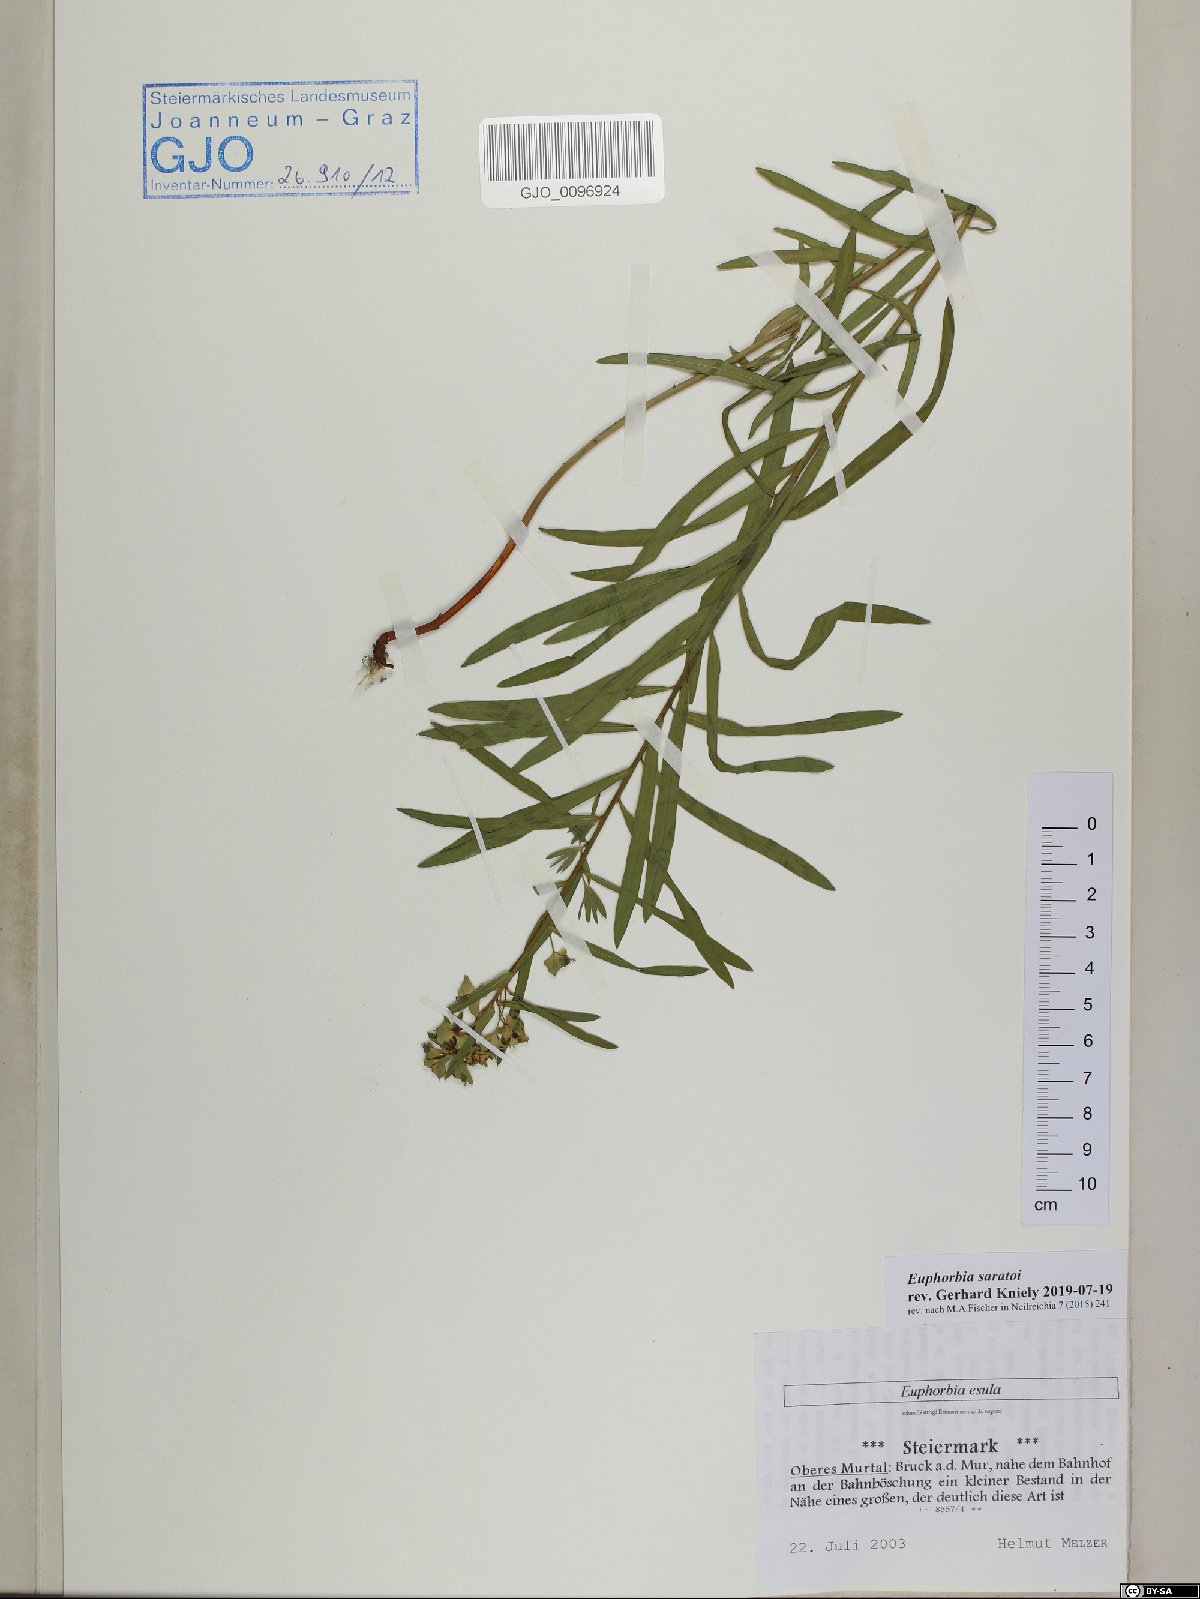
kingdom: Plantae
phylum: Tracheophyta
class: Magnoliopsida
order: Malpighiales
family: Euphorbiaceae
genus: Euphorbia
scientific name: Euphorbia saratoi
